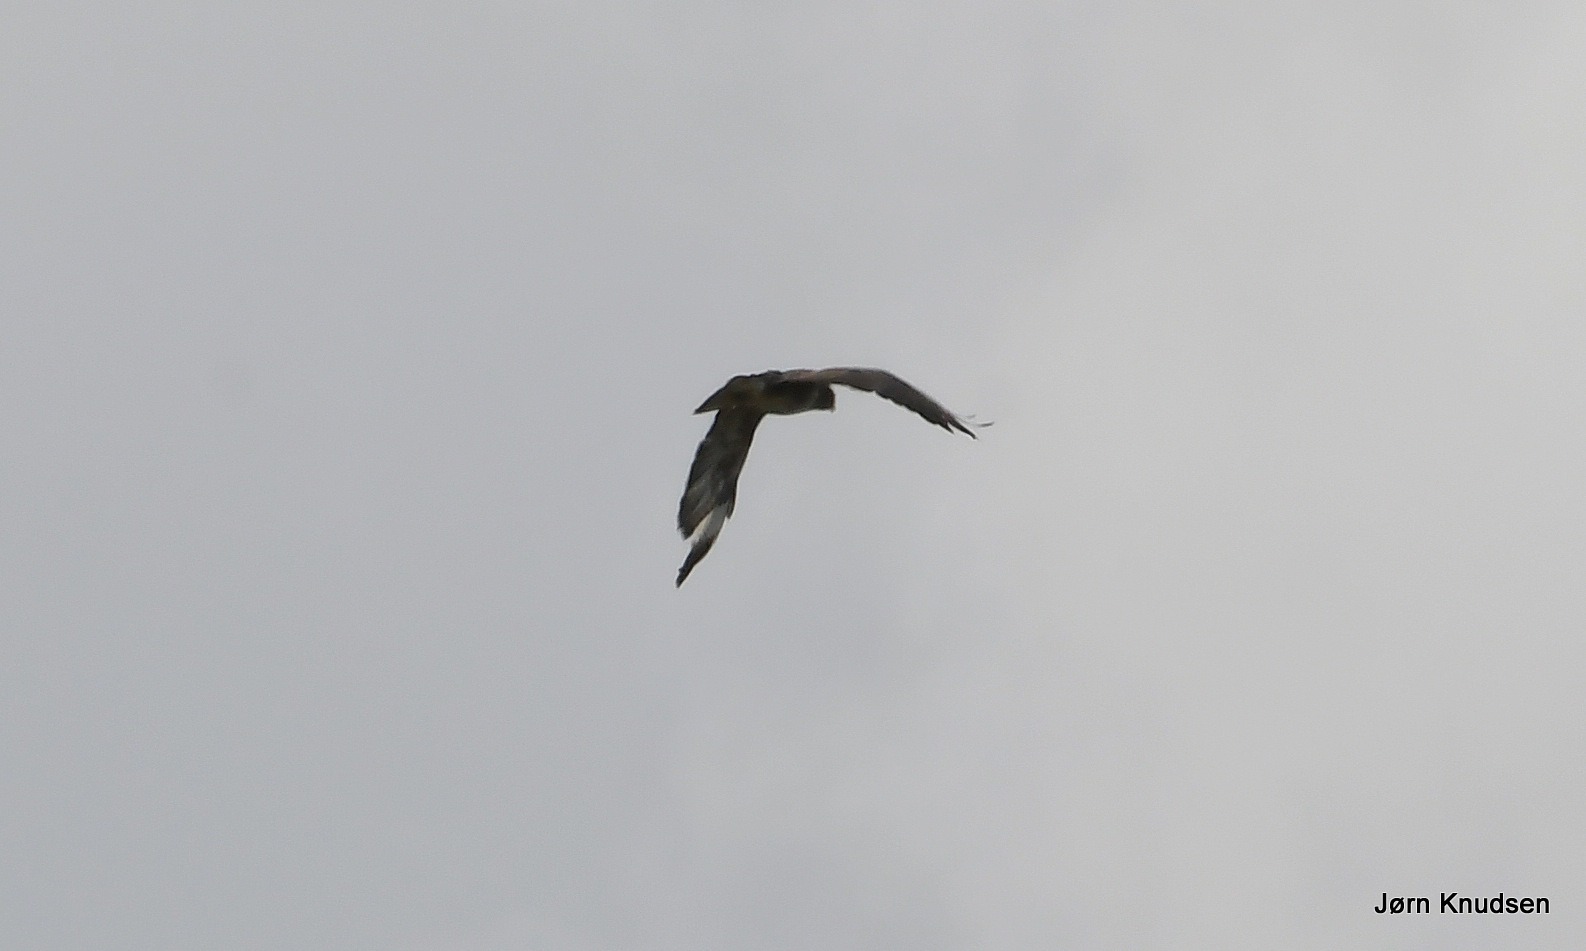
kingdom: Animalia
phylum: Chordata
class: Aves
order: Accipitriformes
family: Accipitridae
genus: Buteo
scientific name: Buteo buteo
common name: Musvåge
